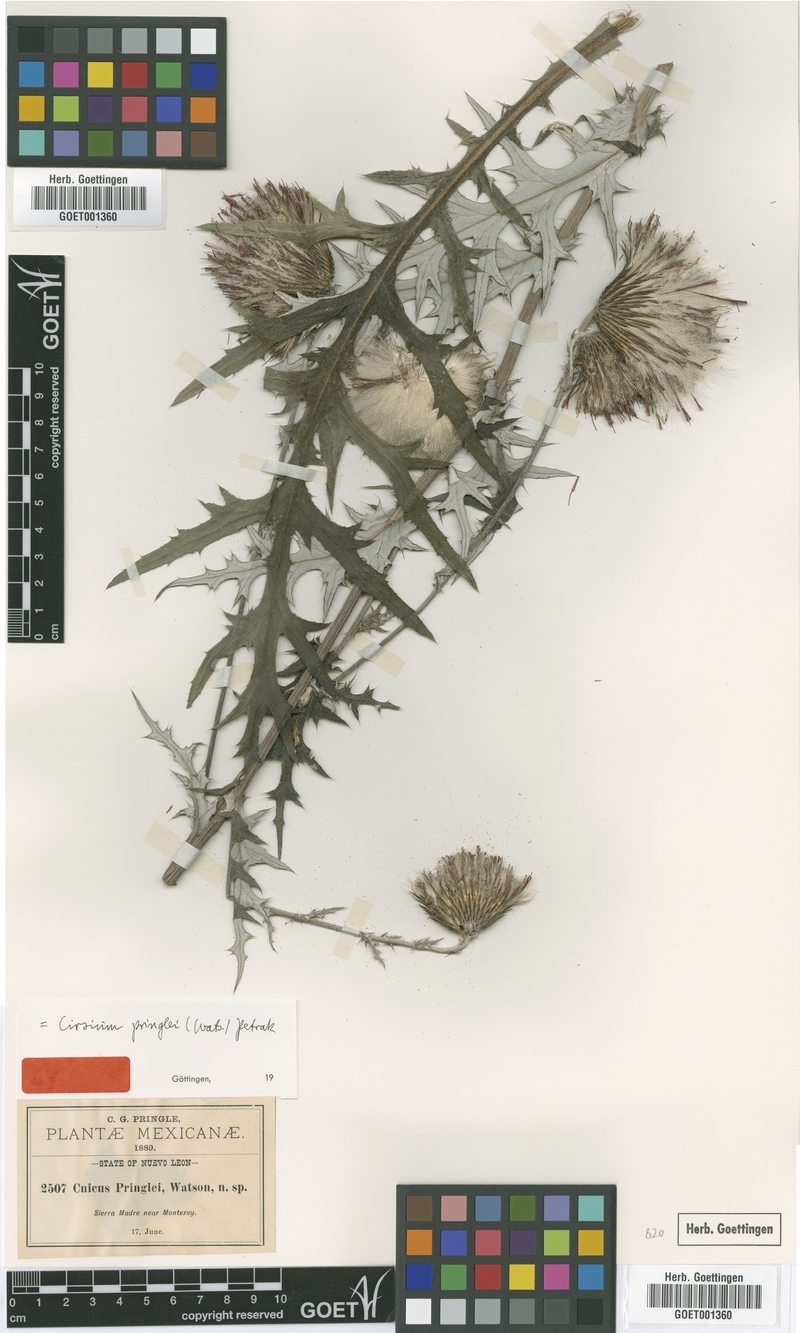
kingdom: Plantae
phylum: Tracheophyta
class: Magnoliopsida
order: Asterales
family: Asteraceae
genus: Cirsium
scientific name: Cirsium pringlei
